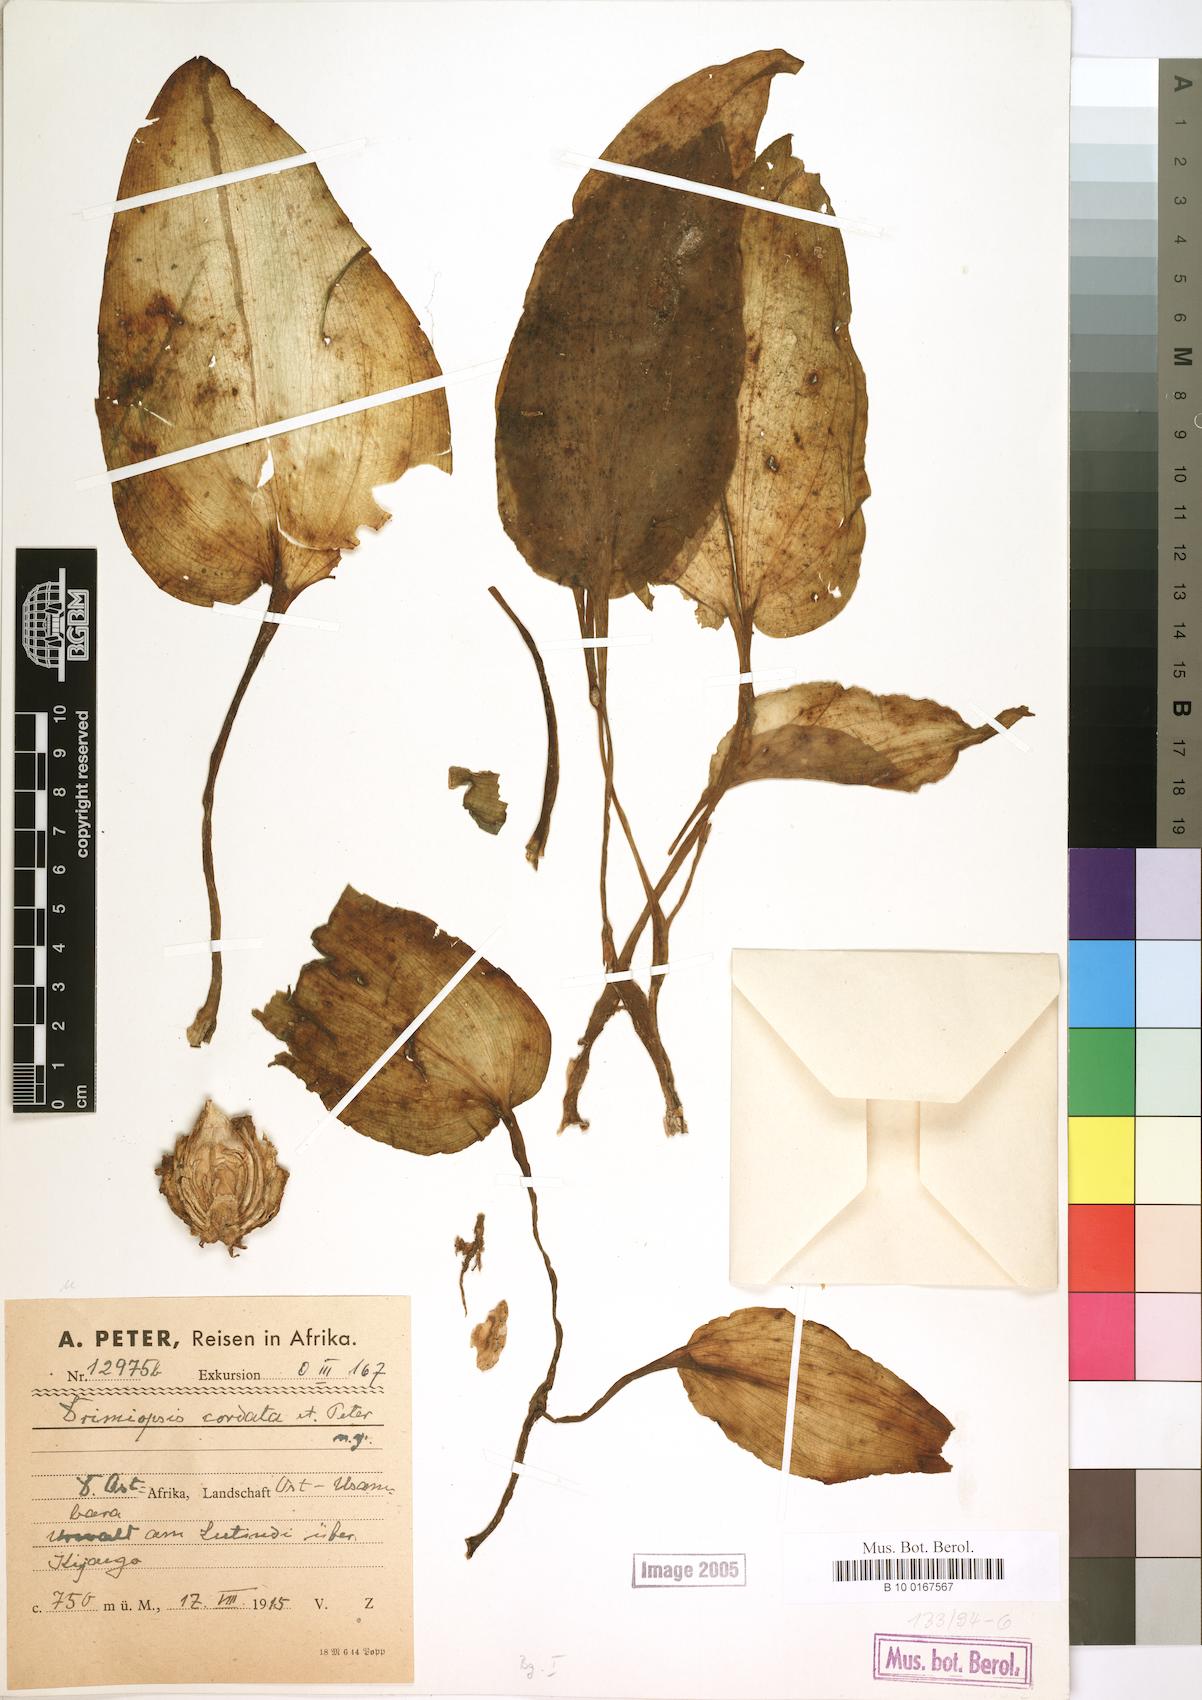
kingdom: Plantae
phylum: Tracheophyta
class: Liliopsida
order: Asparagales
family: Asparagaceae
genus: Drimiopsis
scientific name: Drimiopsis
